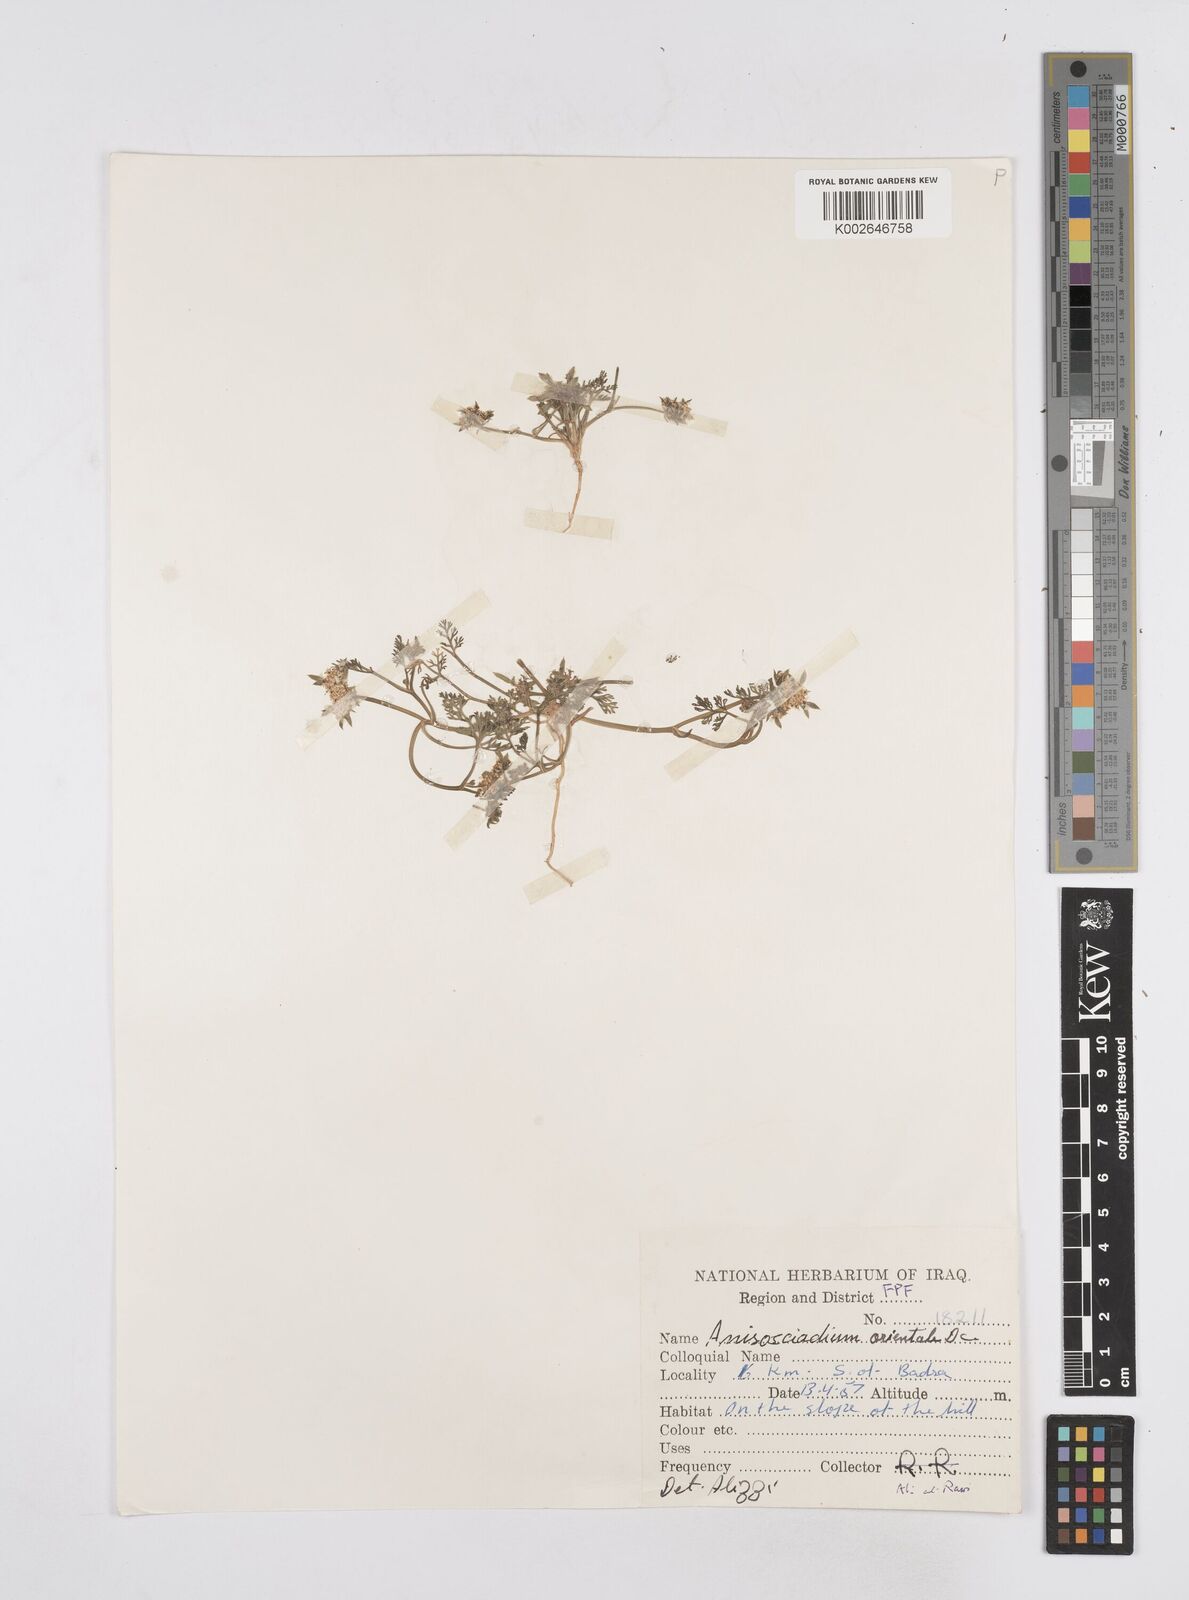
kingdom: Plantae
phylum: Tracheophyta
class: Magnoliopsida
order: Apiales
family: Apiaceae
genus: Anisosciadium
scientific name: Anisosciadium orientale
